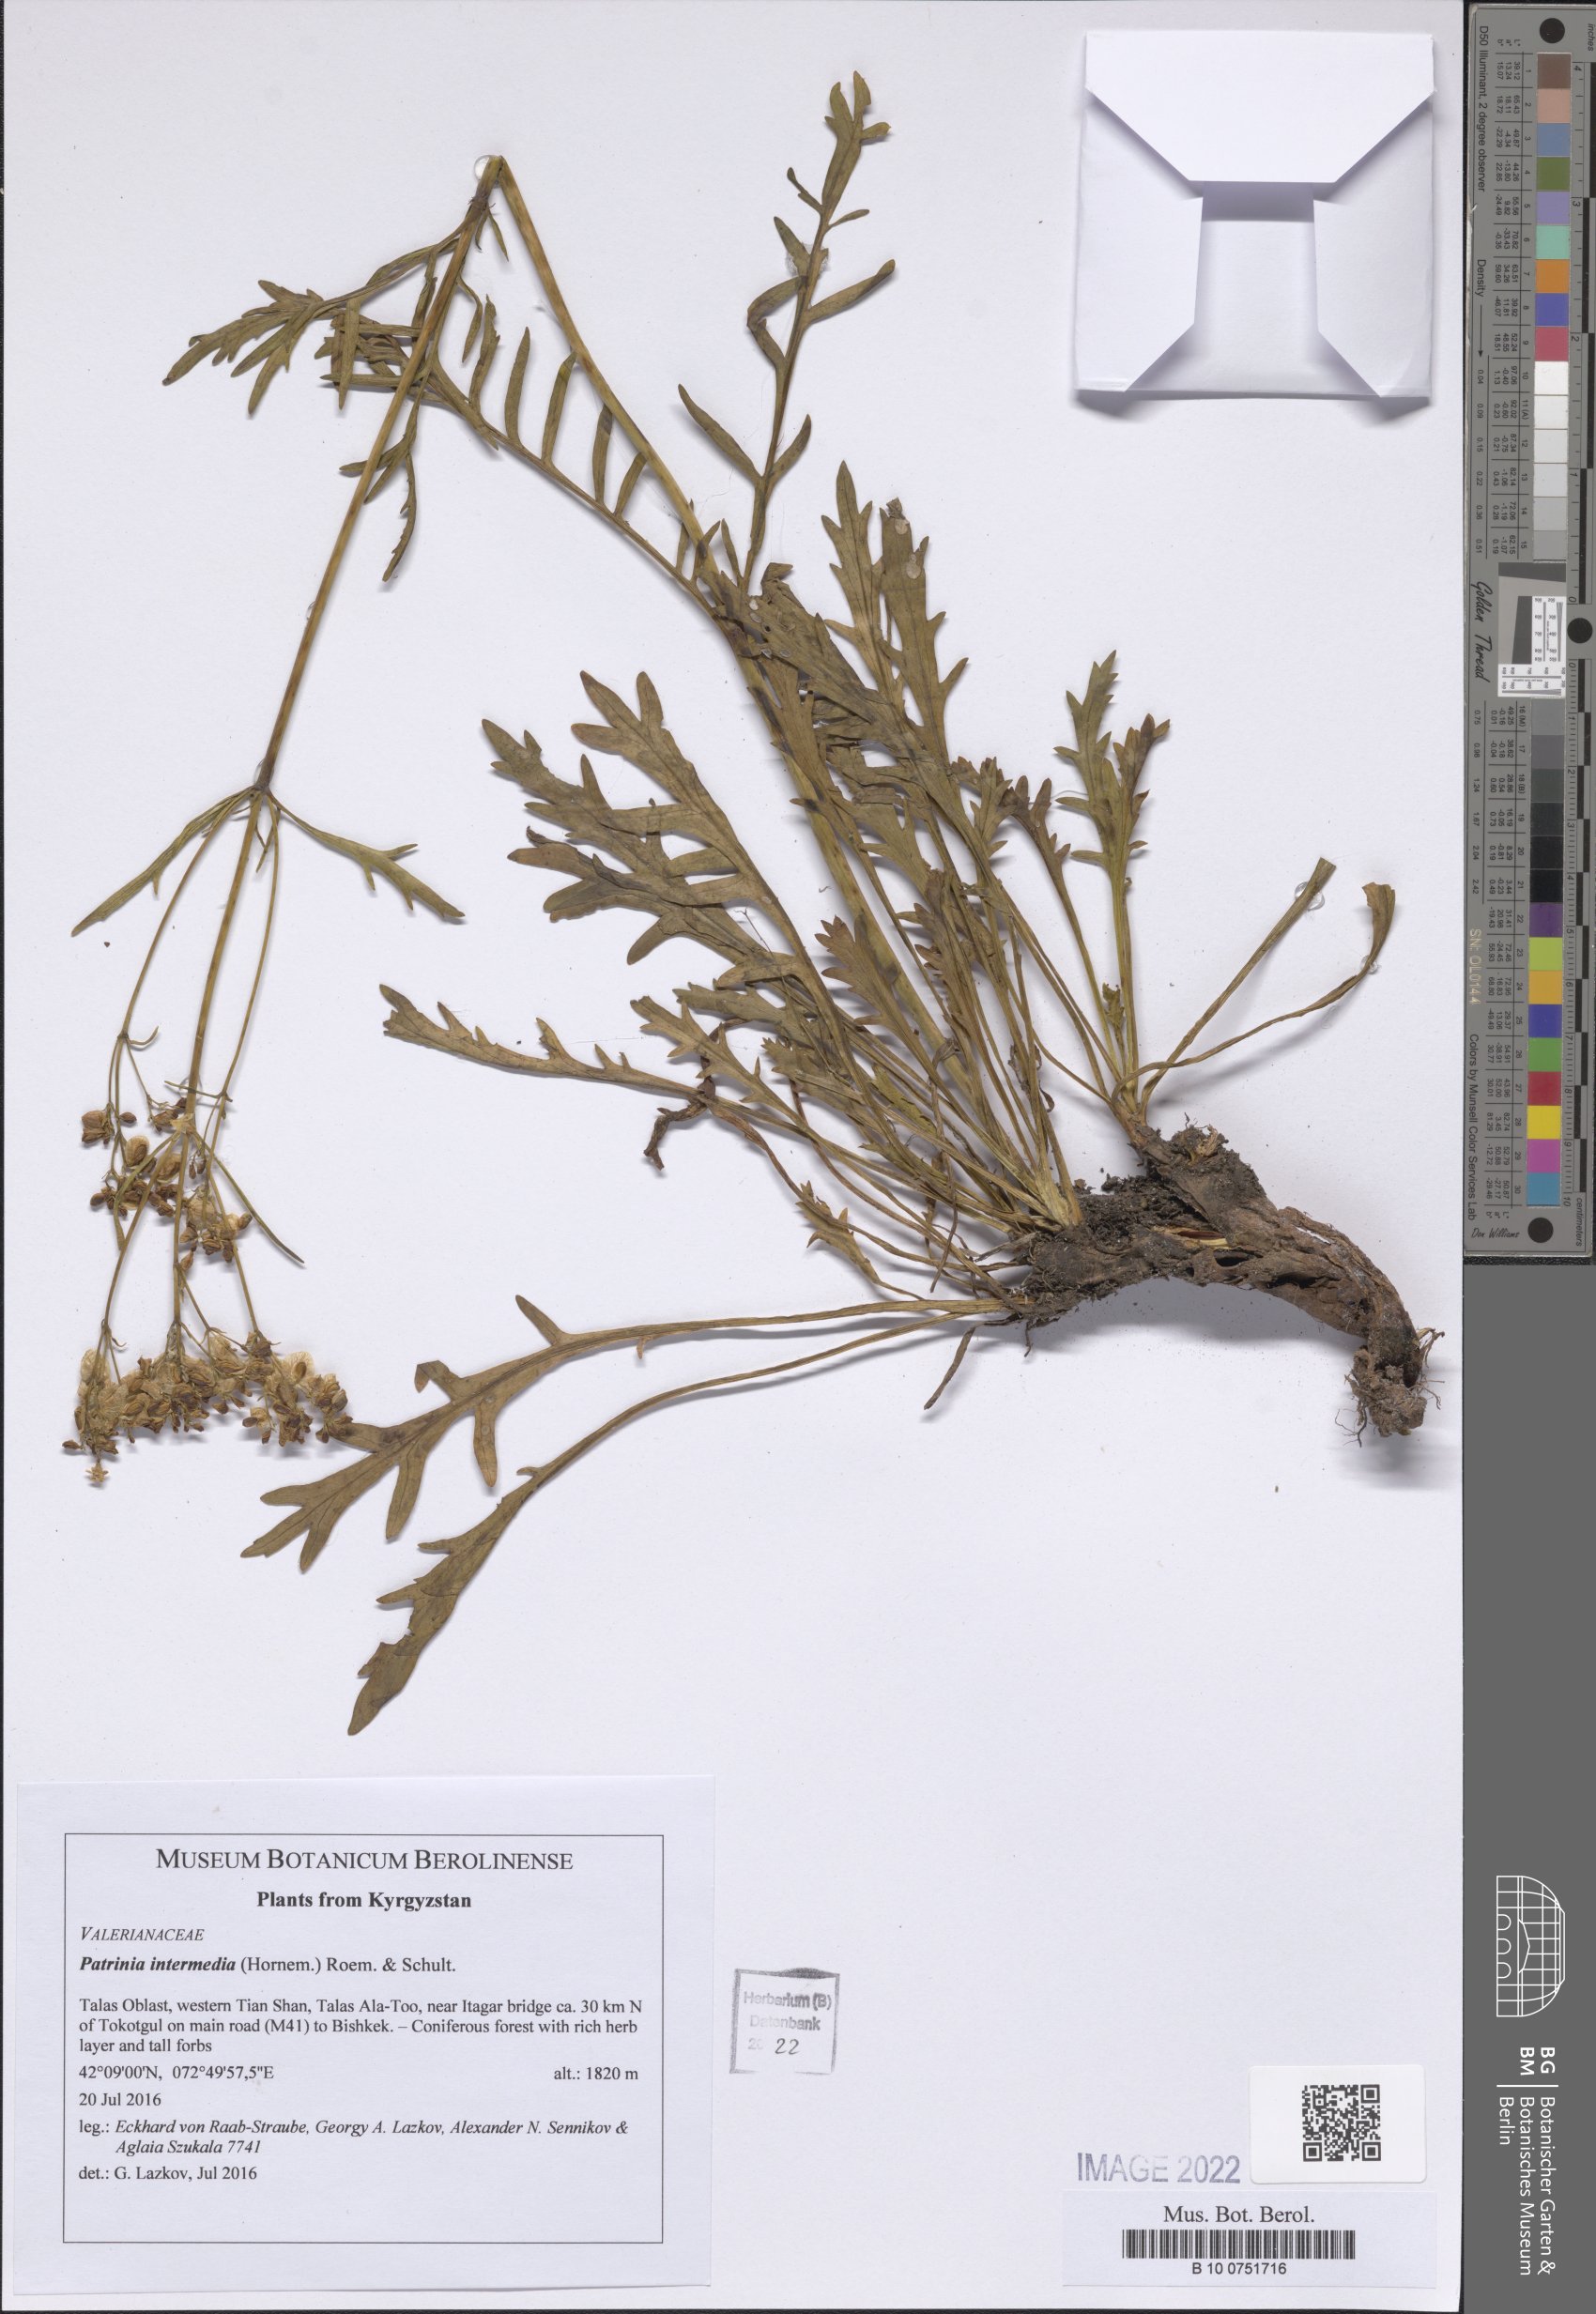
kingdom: Plantae
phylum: Tracheophyta
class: Magnoliopsida
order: Dipsacales
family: Caprifoliaceae
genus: Patrinia
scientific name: Patrinia intermedia
